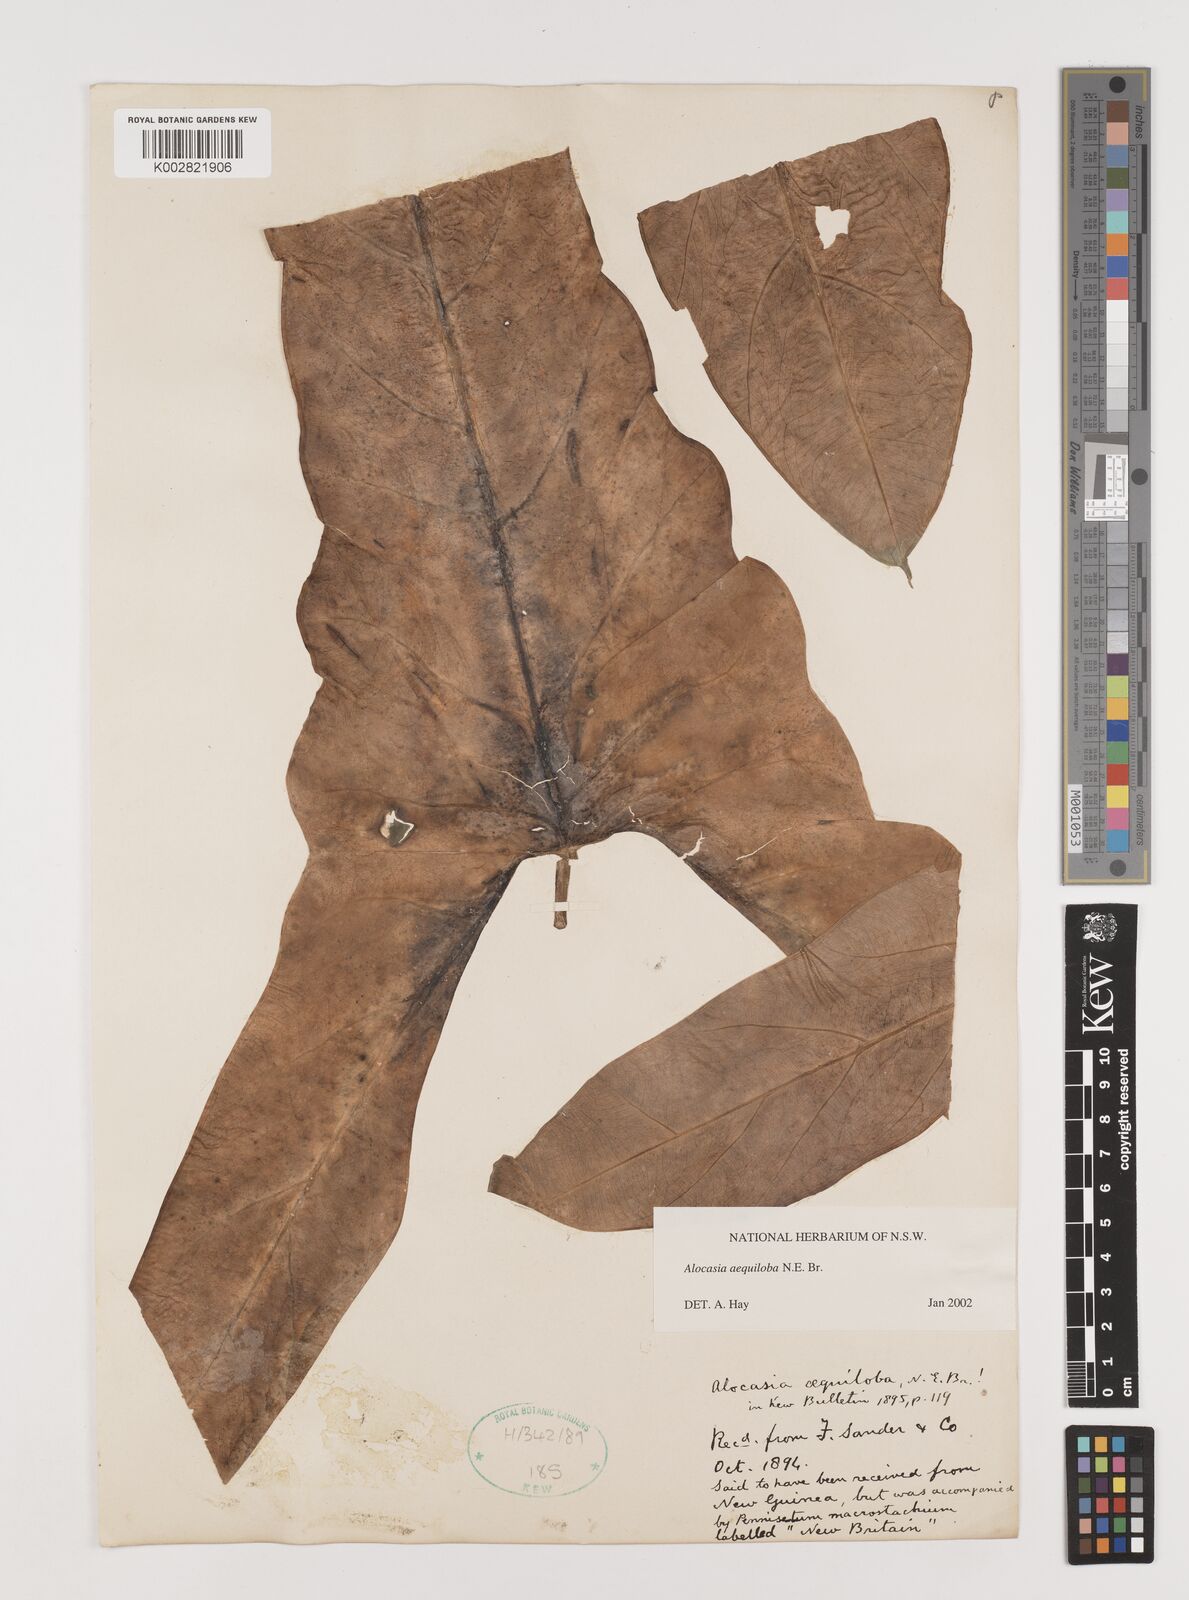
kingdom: Plantae
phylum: Tracheophyta
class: Liliopsida
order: Alismatales
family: Araceae
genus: Alocasia
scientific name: Alocasia aequiloba
